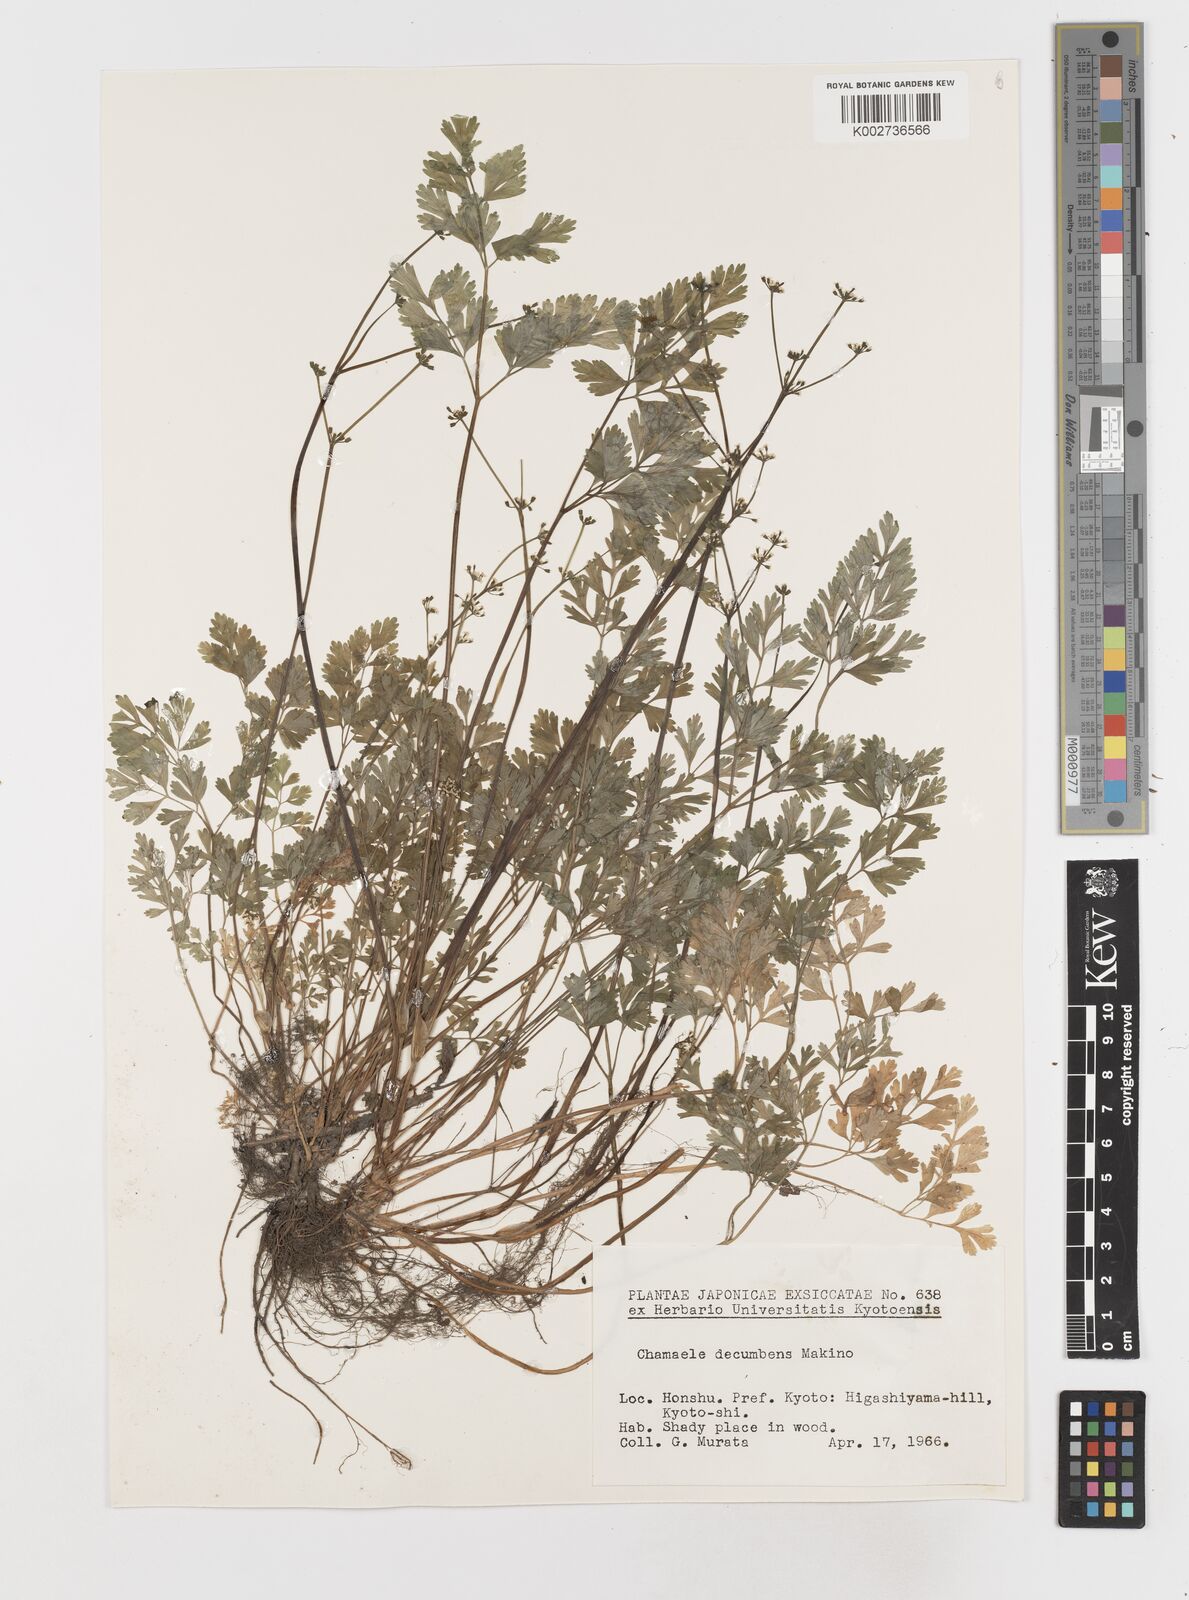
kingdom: Plantae
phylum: Tracheophyta
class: Magnoliopsida
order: Apiales
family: Apiaceae
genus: Aegopodium
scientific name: Aegopodium decumbens
